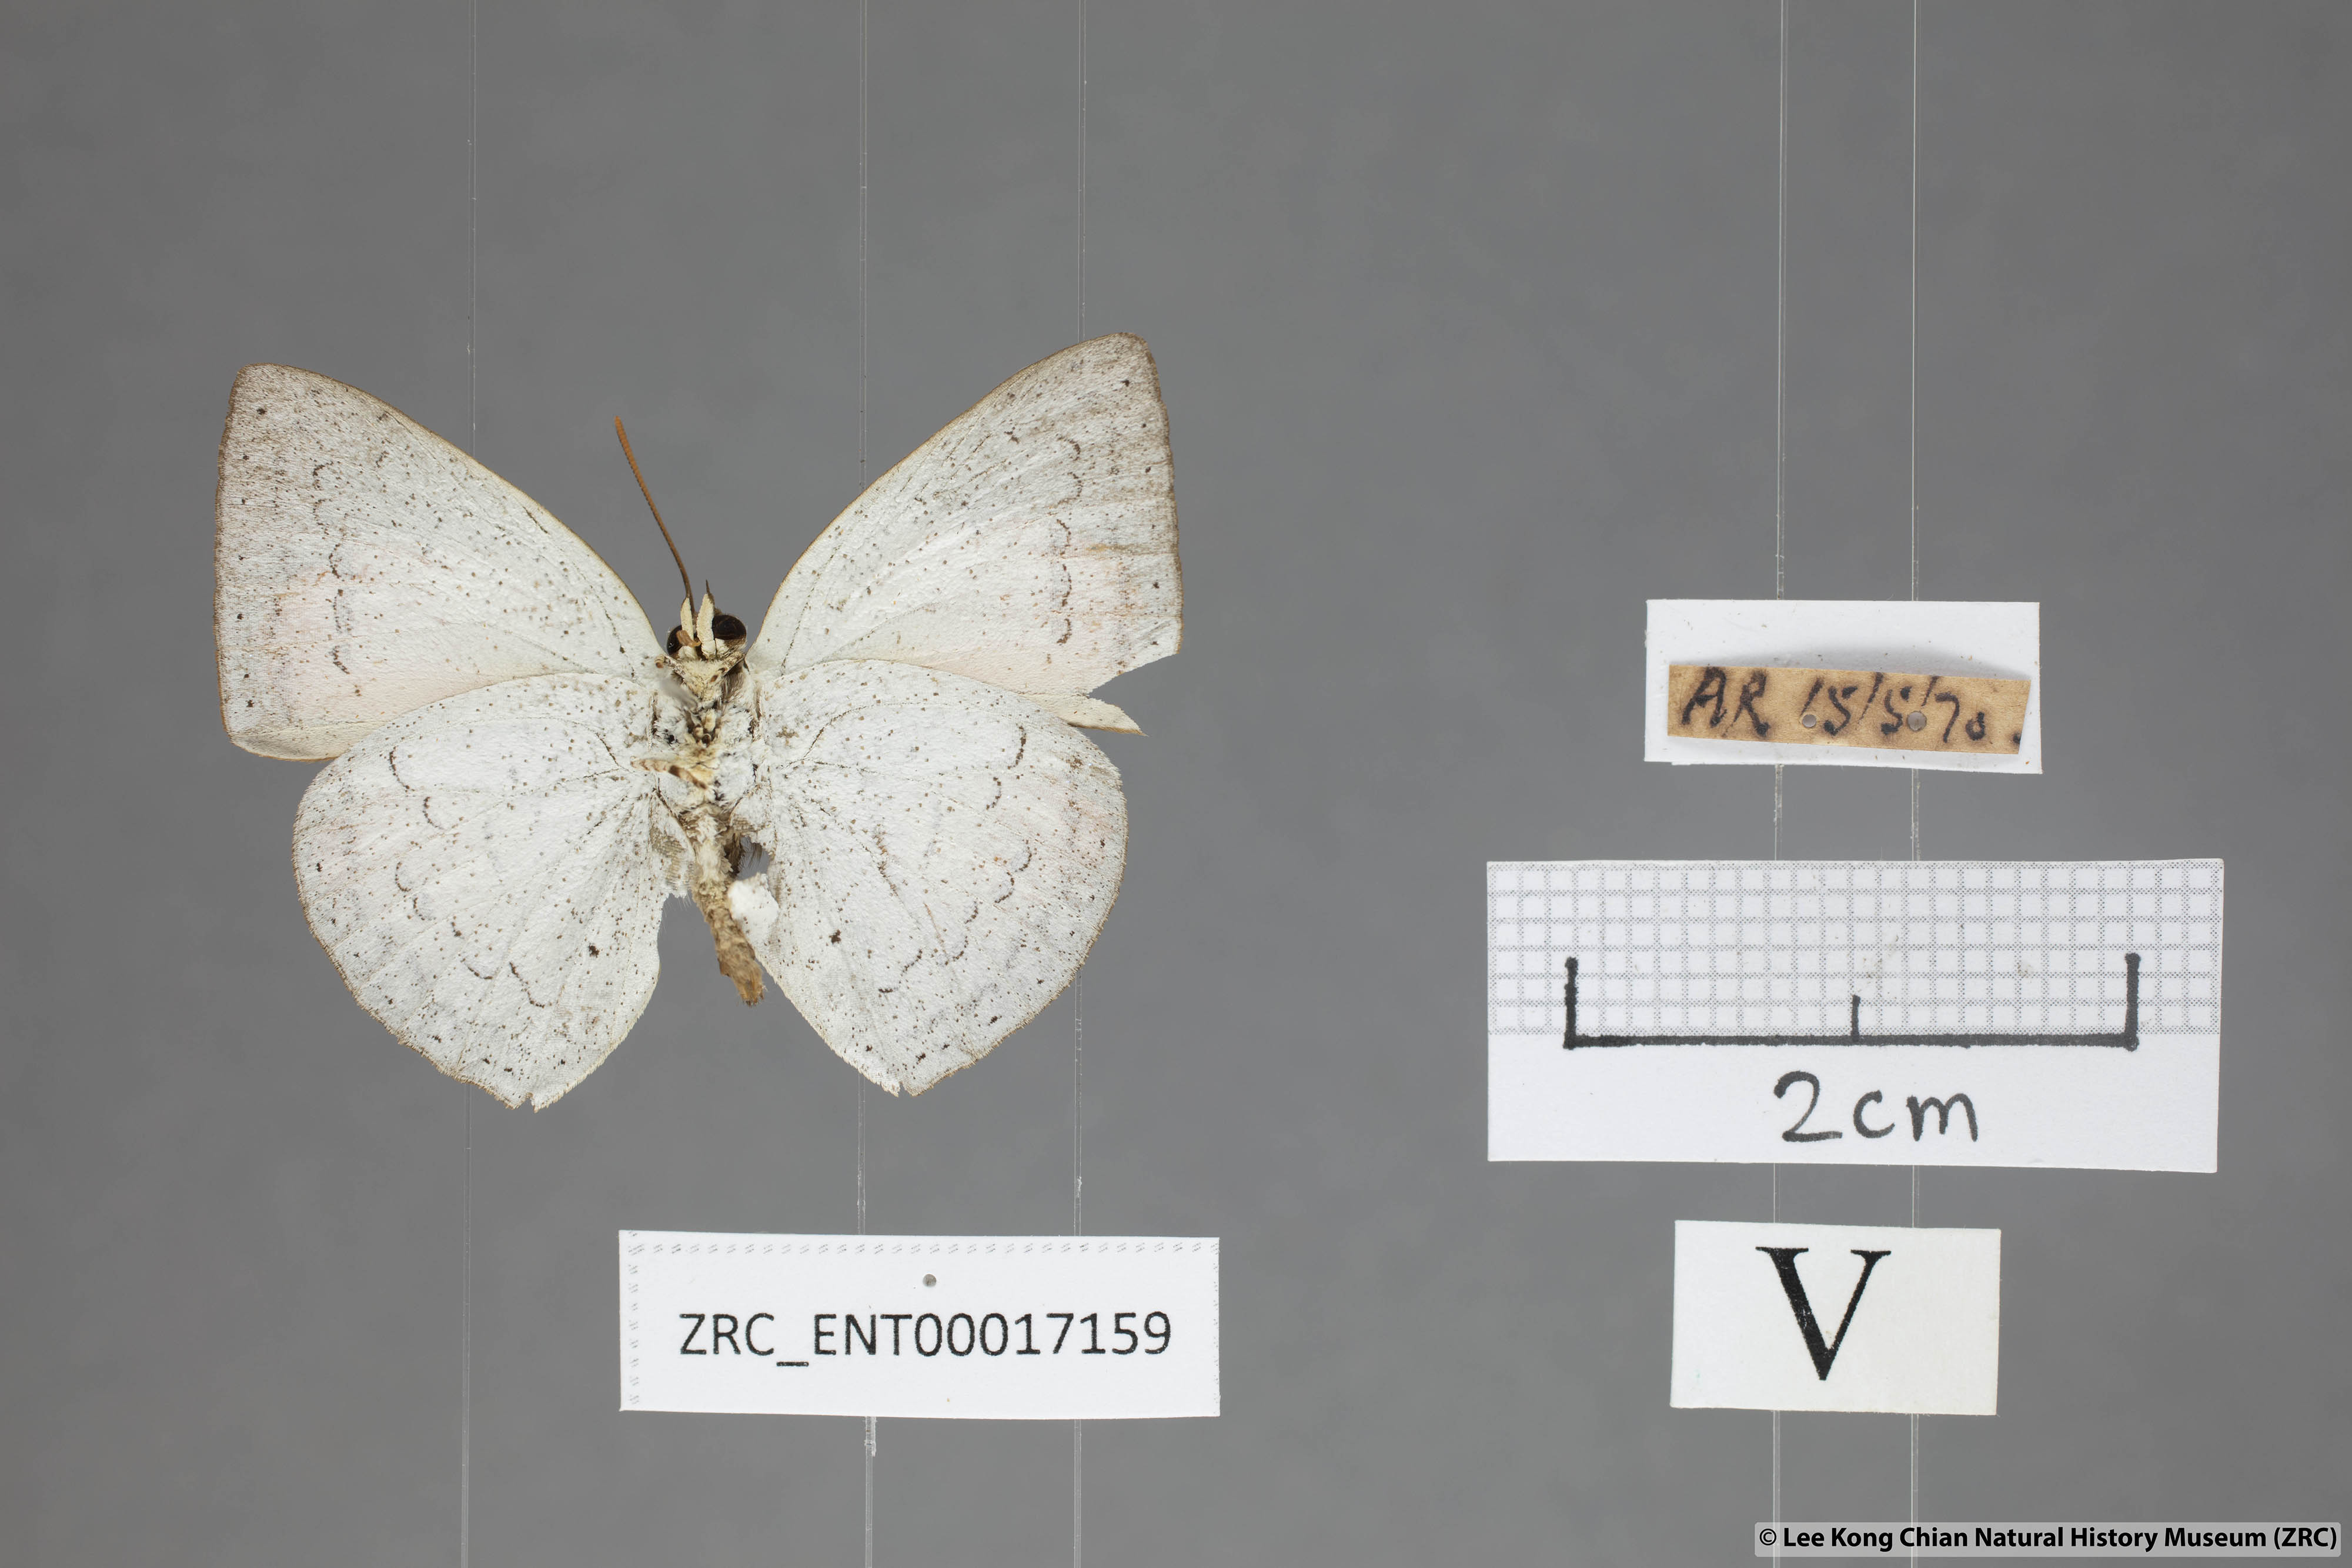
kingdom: Animalia
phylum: Arthropoda
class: Insecta
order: Lepidoptera
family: Lycaenidae
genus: Curetis
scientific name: Curetis sperthis
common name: Rounded sunbeam
